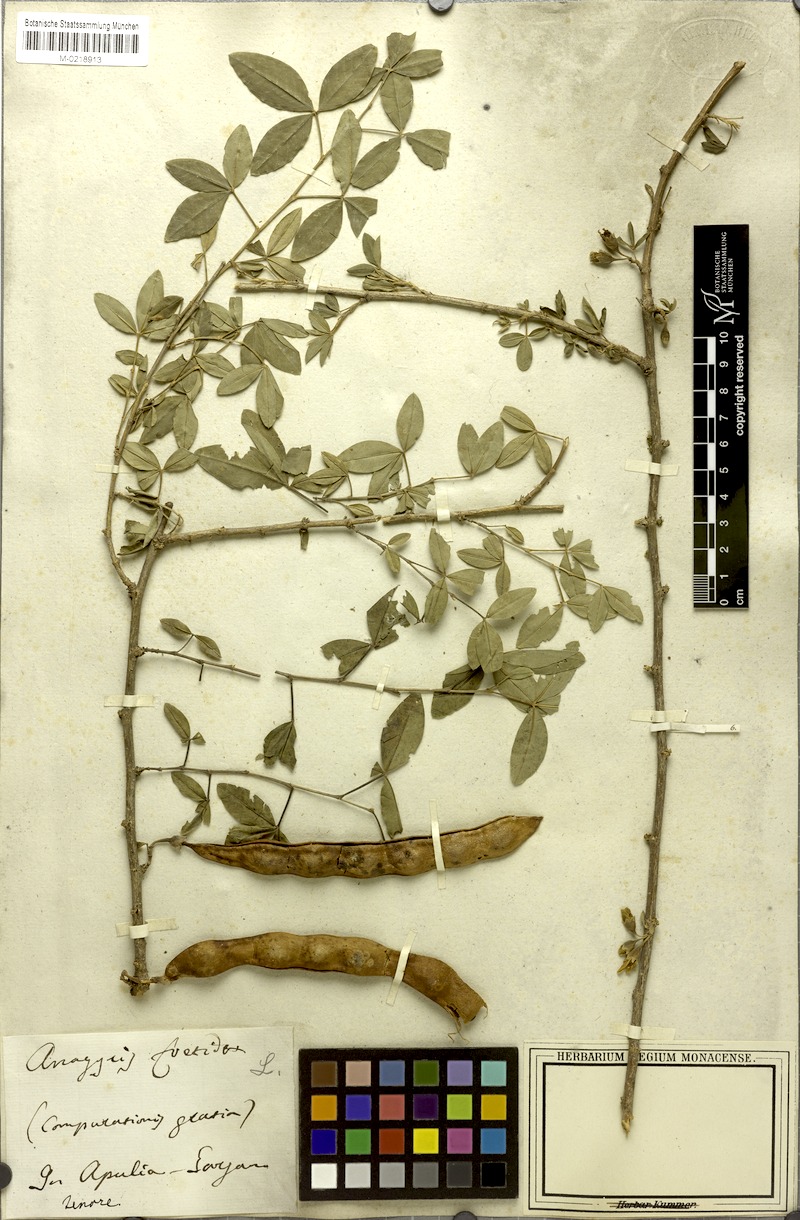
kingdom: Plantae
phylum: Tracheophyta
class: Magnoliopsida
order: Fabales
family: Fabaceae
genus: Anagyris
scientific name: Anagyris foetida
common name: Stinking bean trefoil
